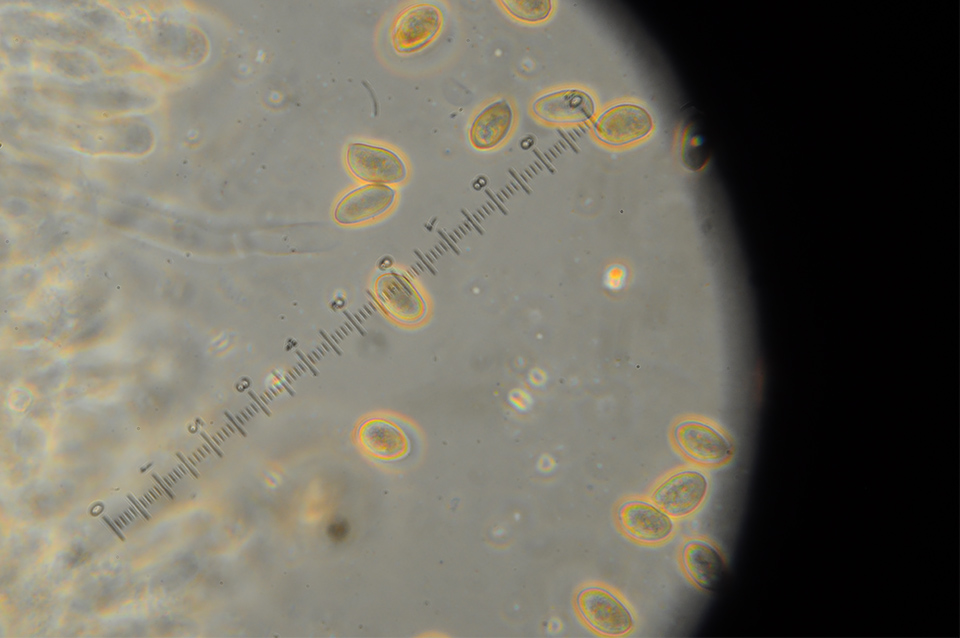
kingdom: Fungi
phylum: Basidiomycota
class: Agaricomycetes
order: Agaricales
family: Hymenogastraceae
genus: Galerina
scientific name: Galerina arctica
